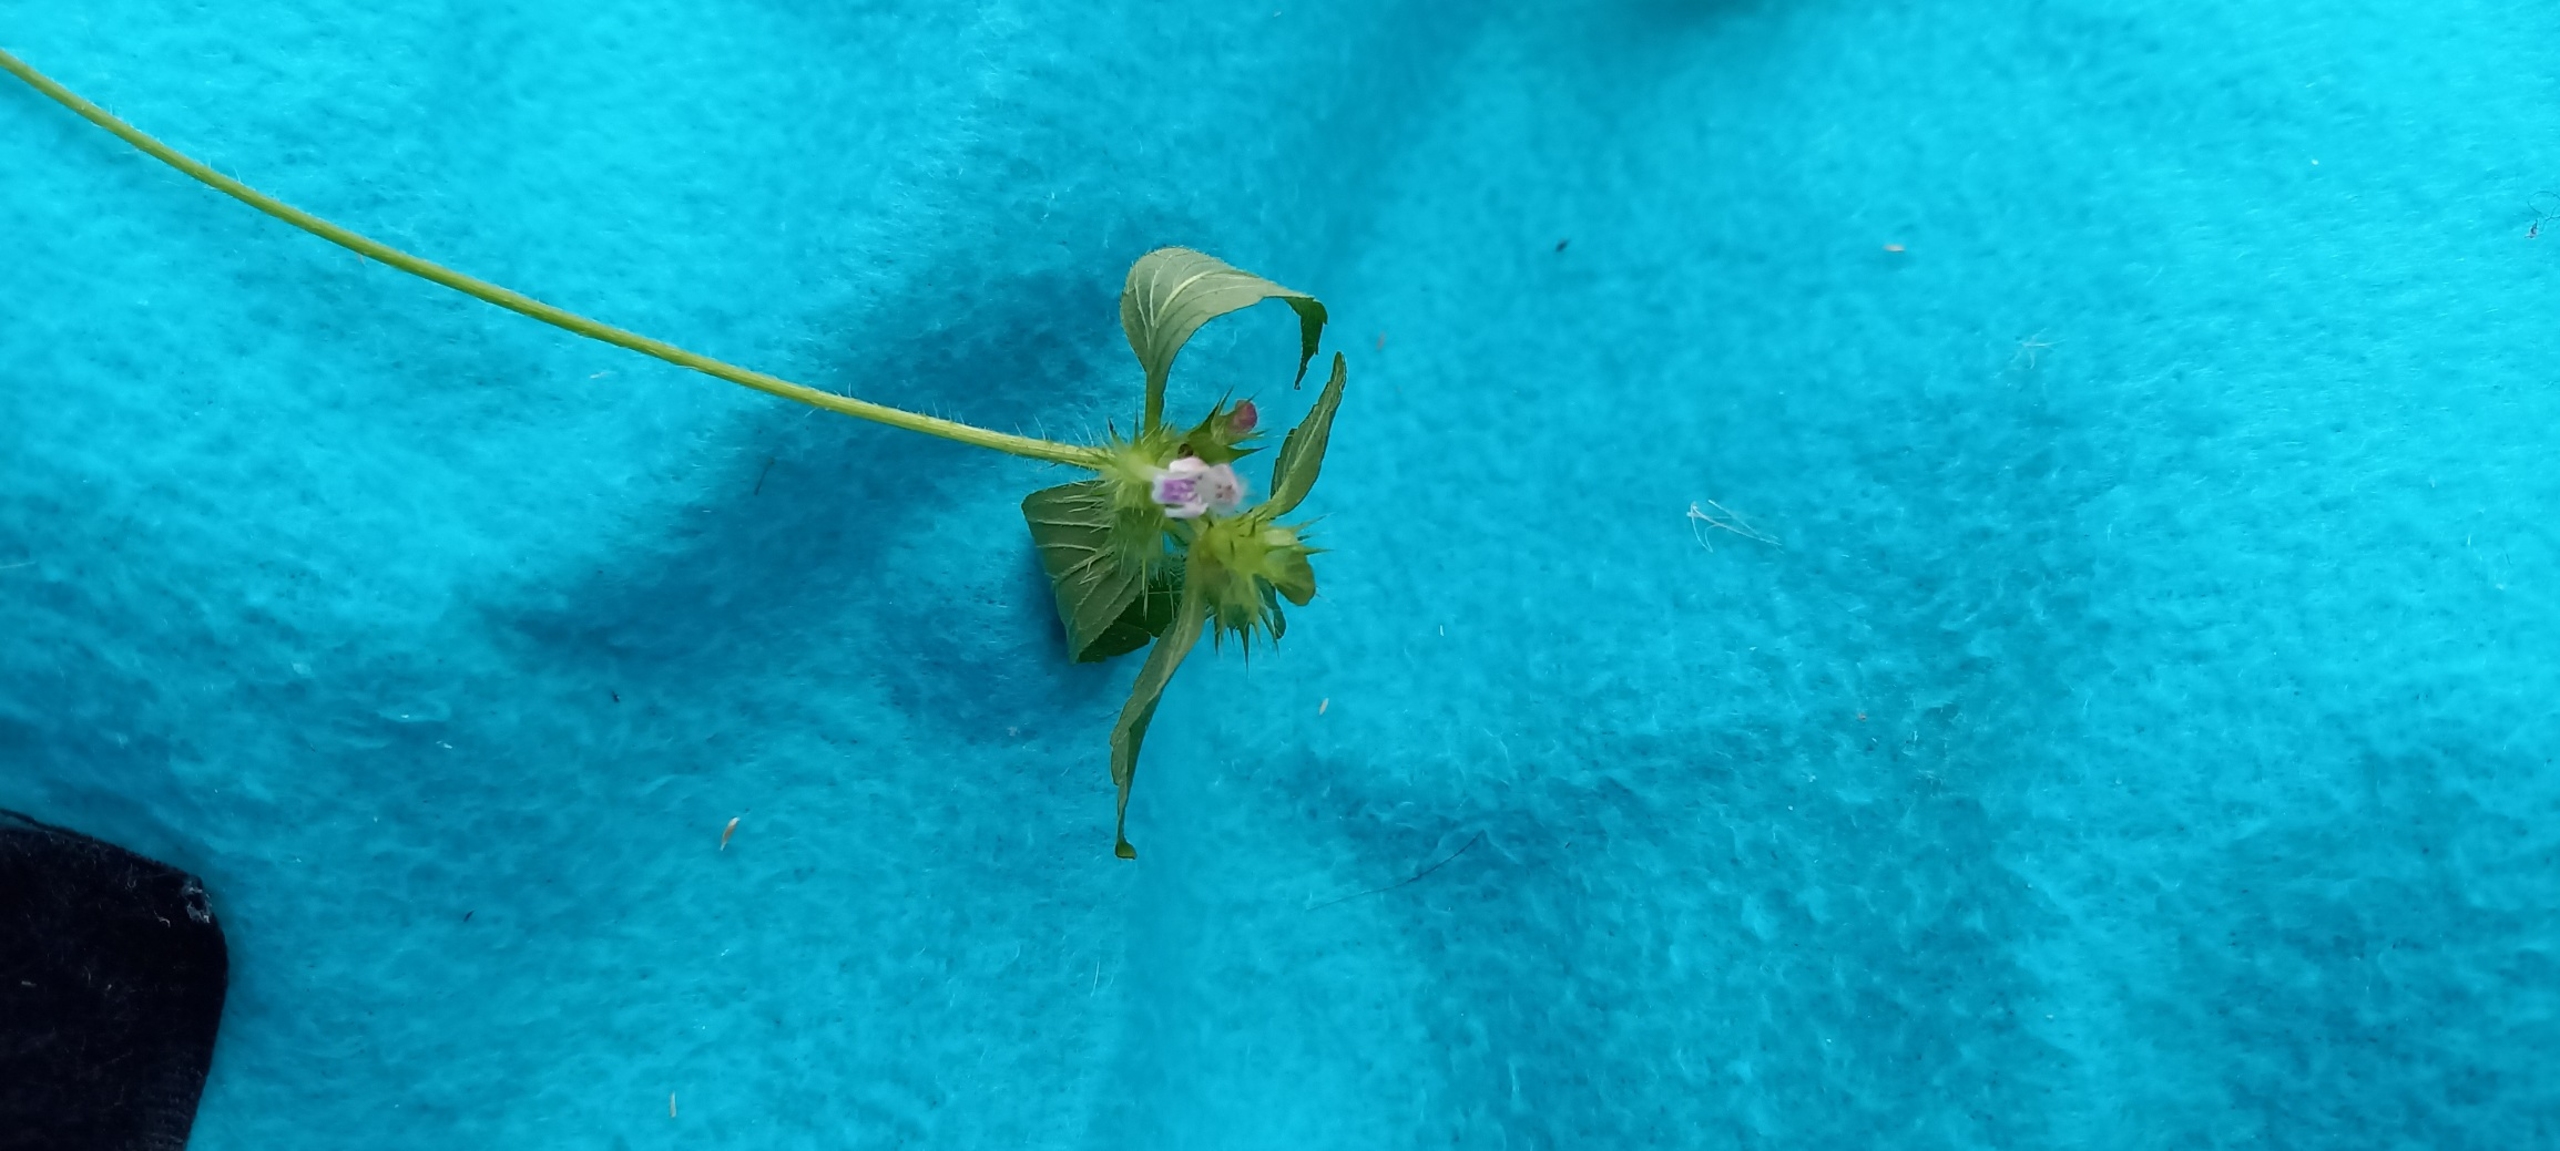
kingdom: Plantae
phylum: Tracheophyta
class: Magnoliopsida
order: Lamiales
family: Lamiaceae
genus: Galeopsis
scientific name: Galeopsis bifida
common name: Skov-hanekro
